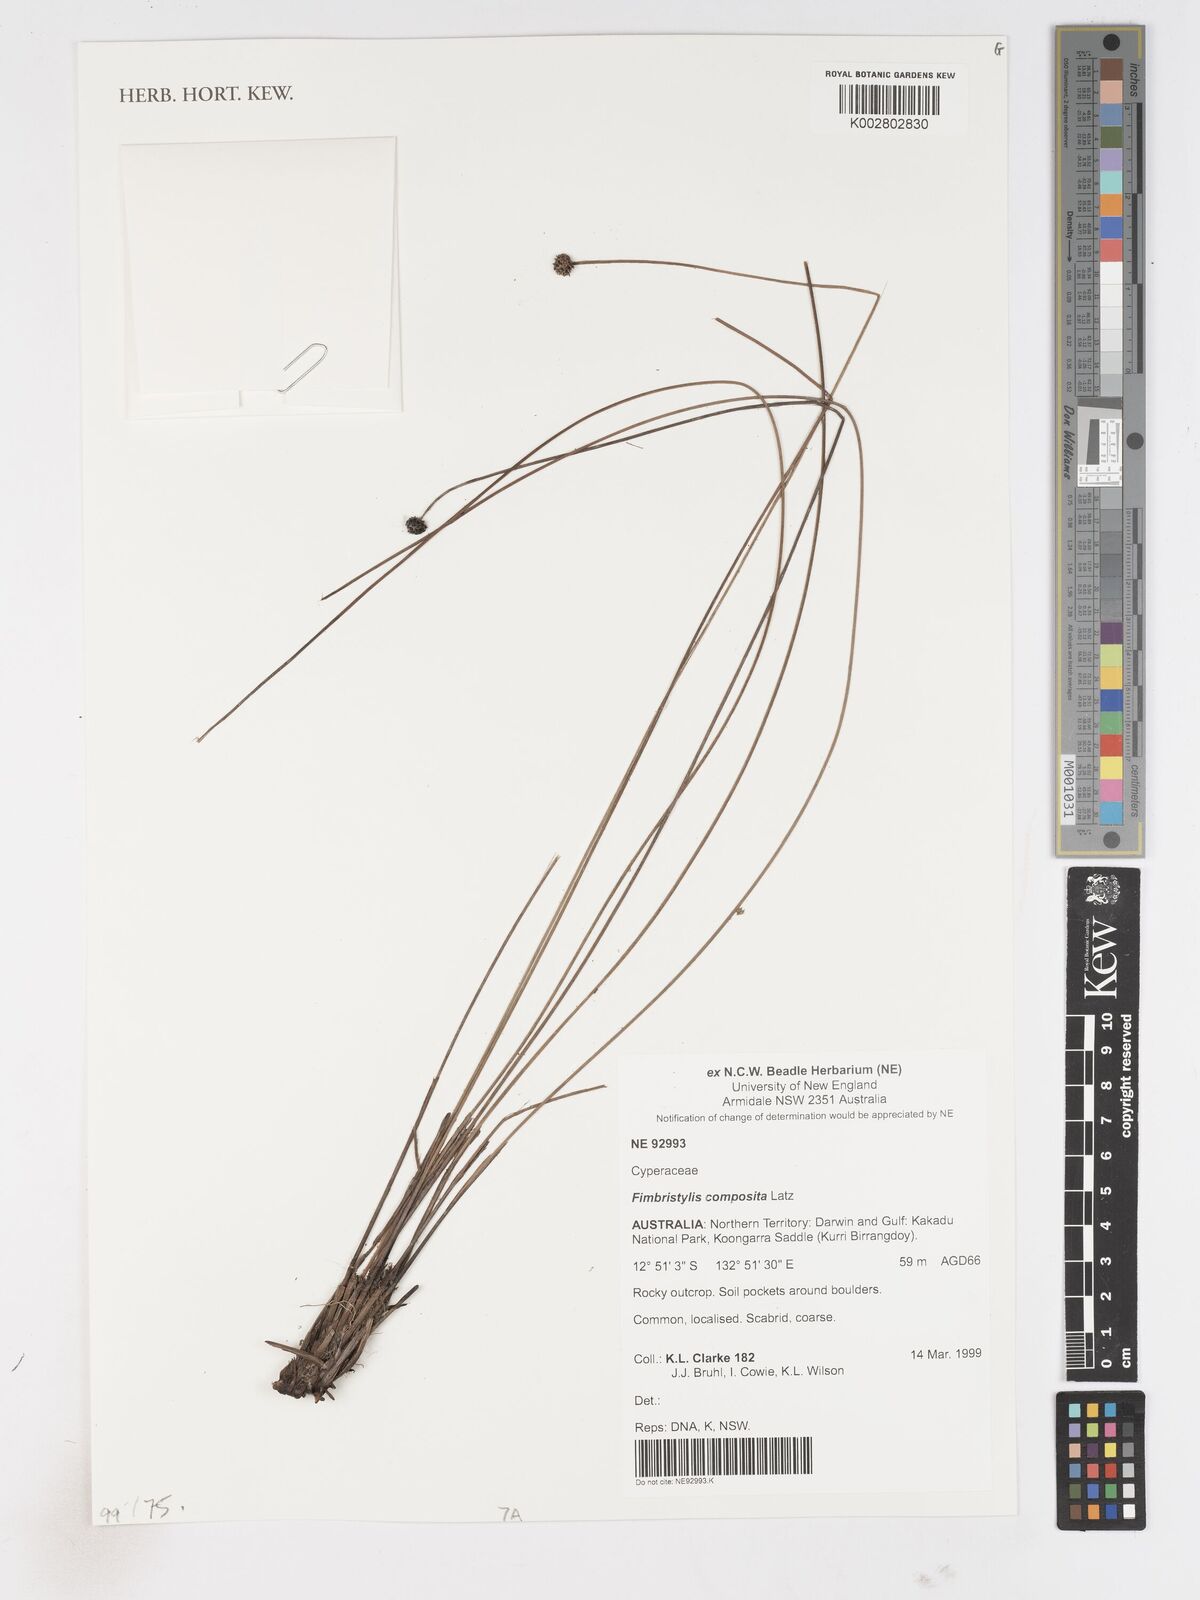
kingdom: Plantae
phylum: Tracheophyta
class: Liliopsida
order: Poales
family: Cyperaceae
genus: Scleroschoenus
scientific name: Scleroschoenus compositus
